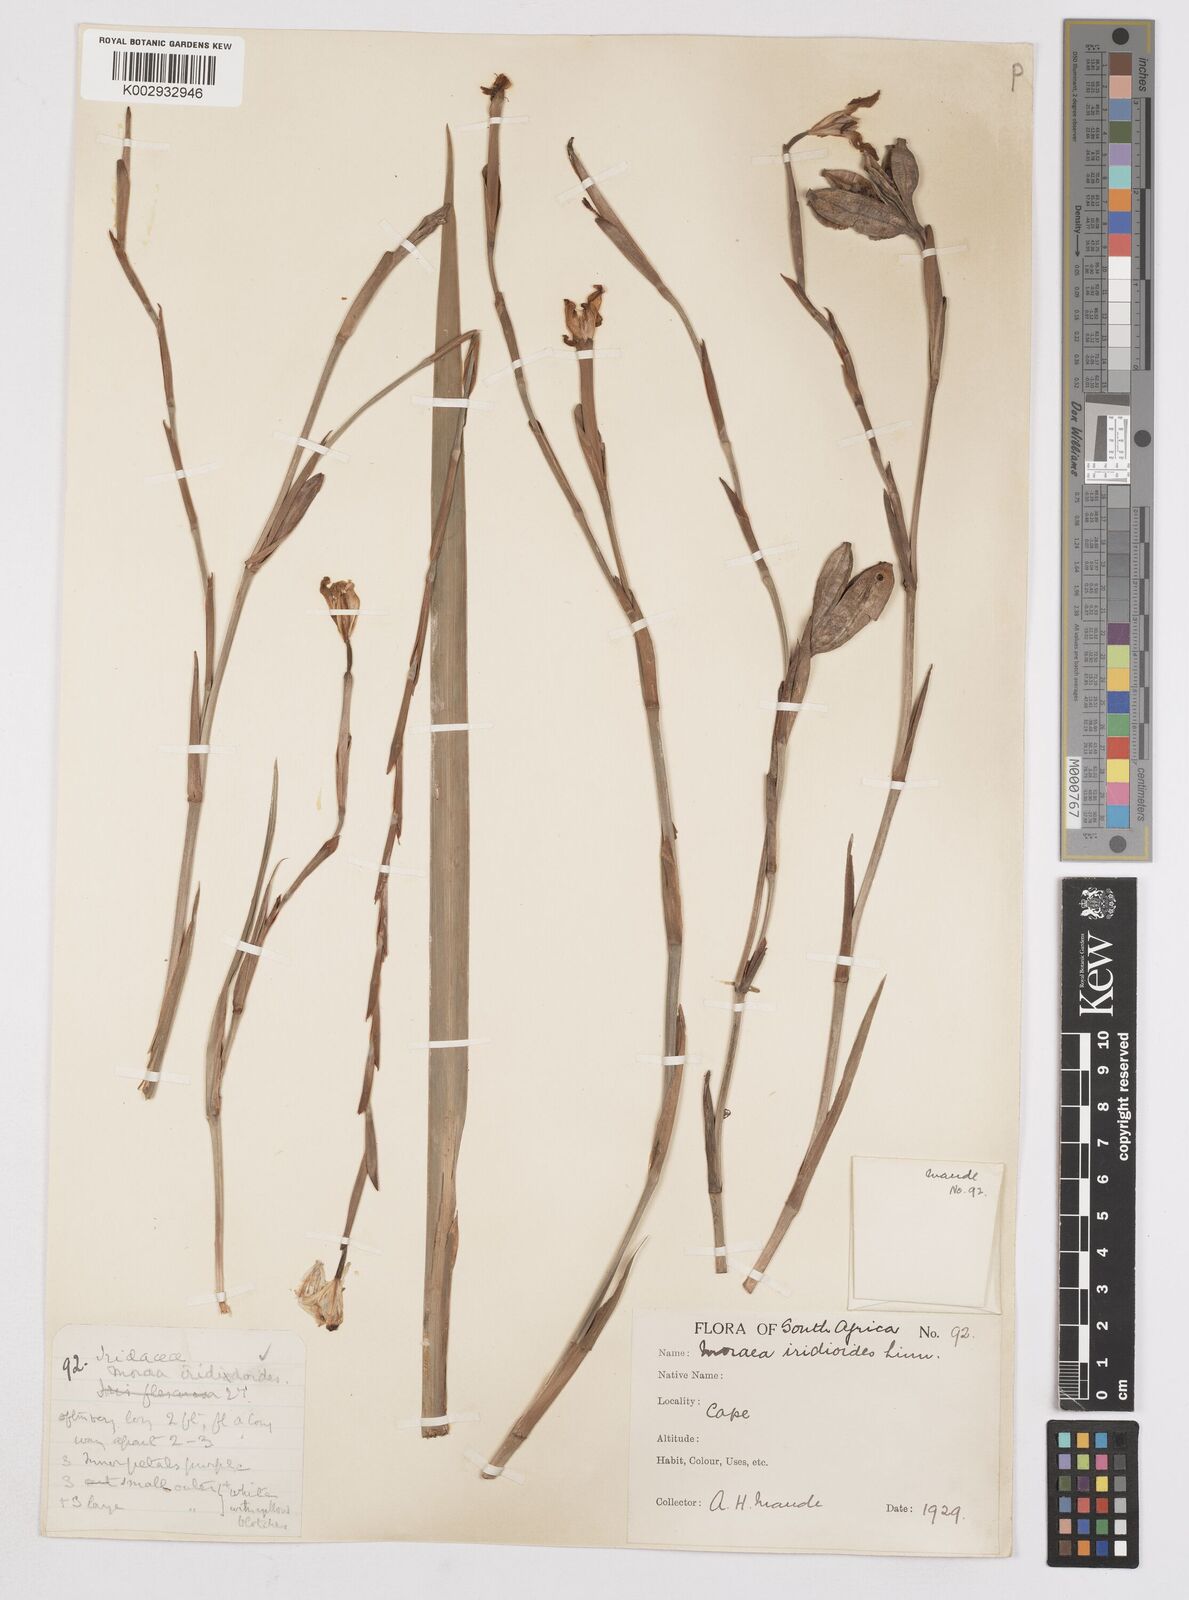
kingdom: Plantae
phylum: Tracheophyta
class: Liliopsida
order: Asparagales
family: Iridaceae
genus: Dietes
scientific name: Dietes iridioides
